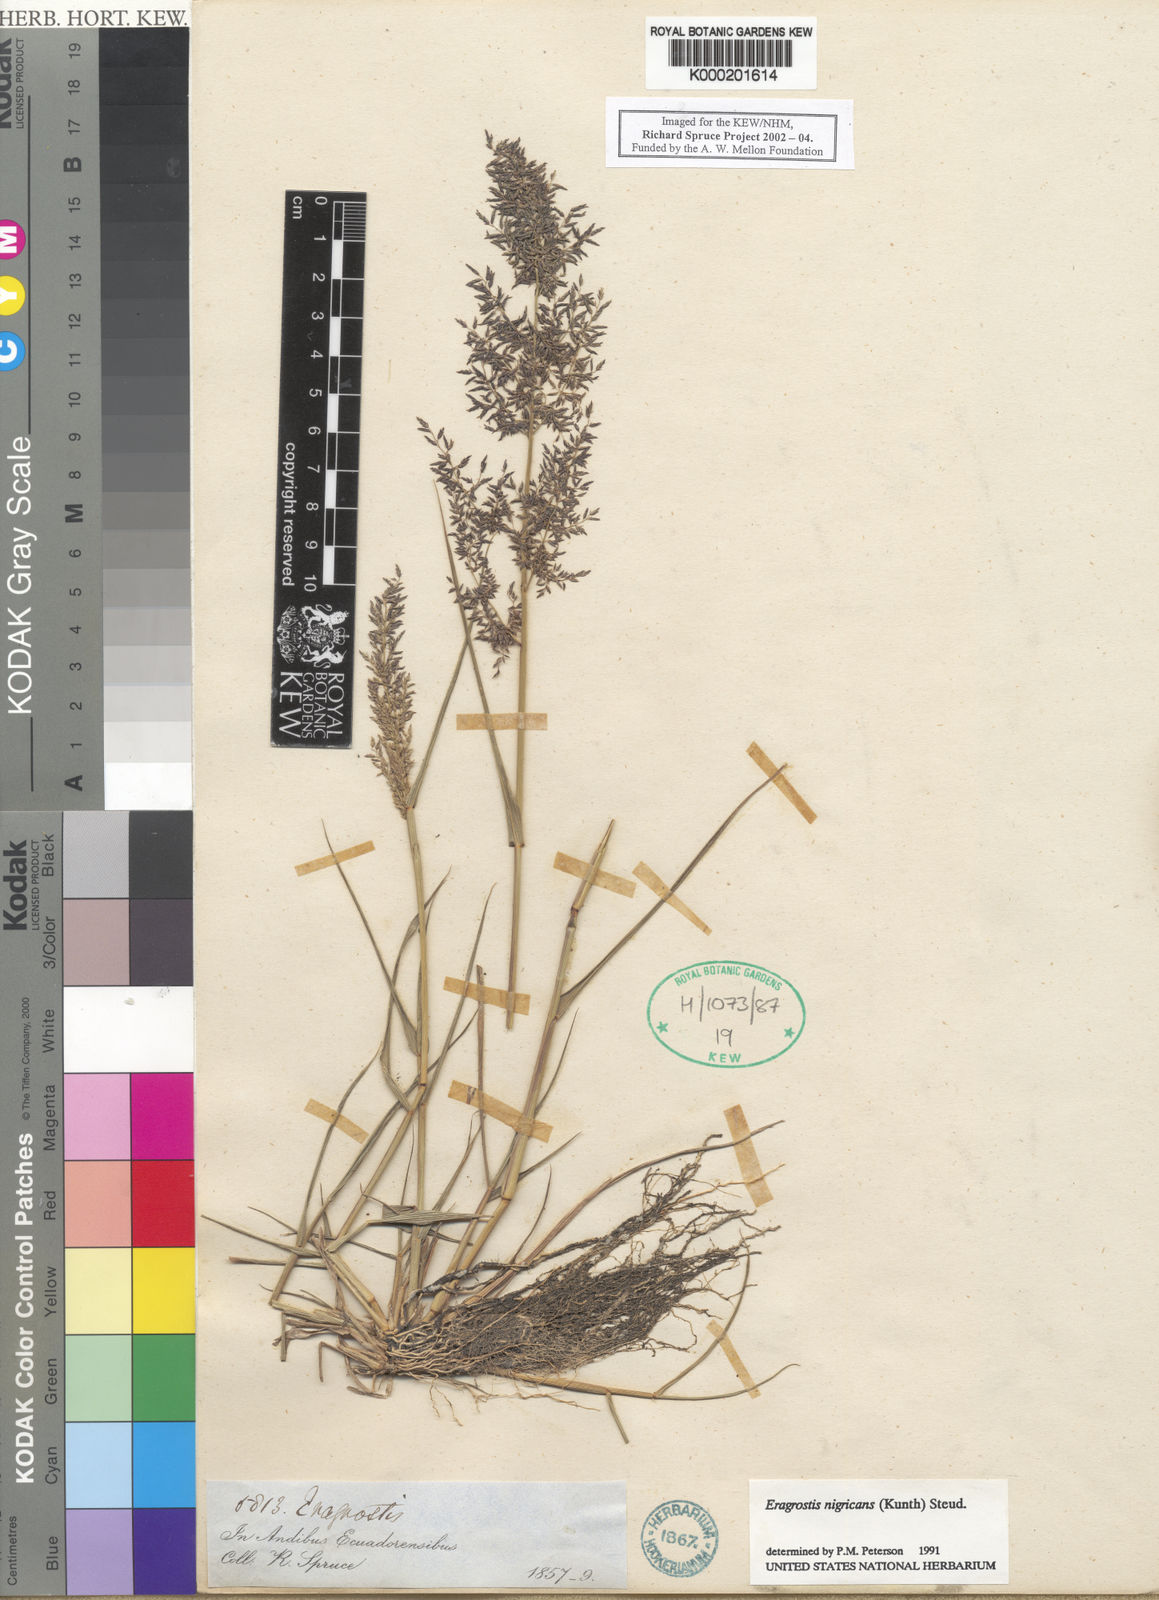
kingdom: Plantae
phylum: Tracheophyta
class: Liliopsida
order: Poales
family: Poaceae
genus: Eragrostis
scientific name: Eragrostis nigricans
